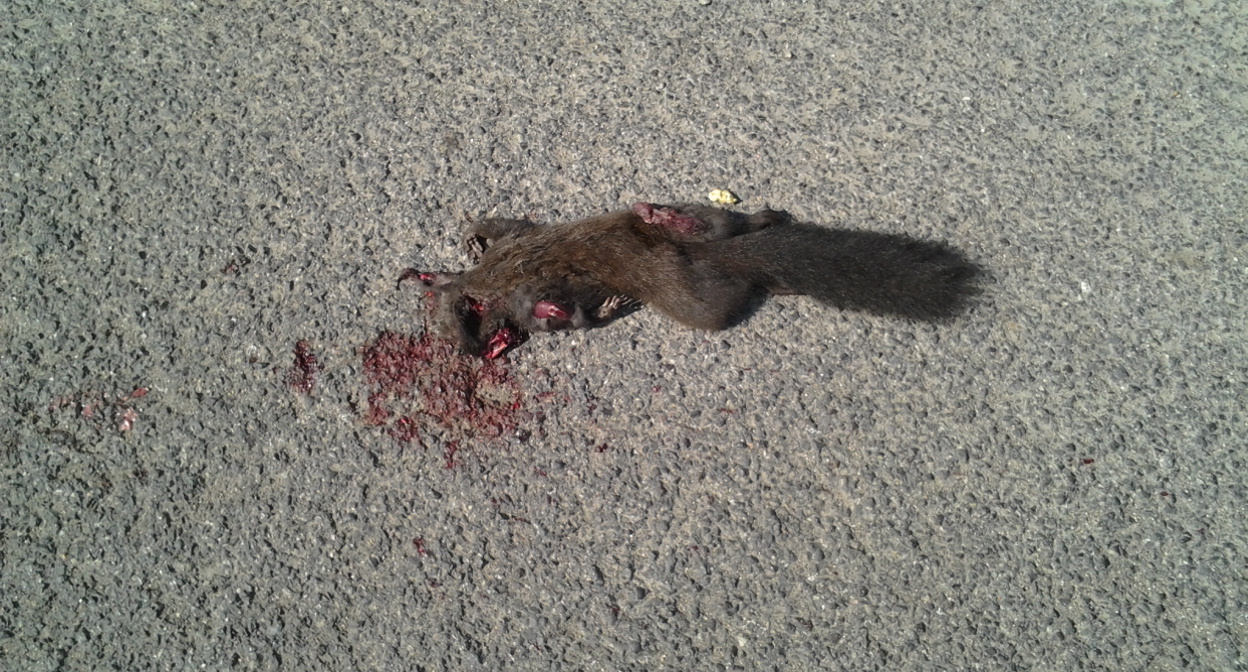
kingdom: Animalia
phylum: Chordata
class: Mammalia
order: Rodentia
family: Sciuridae
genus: Sciurus
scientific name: Sciurus vulgaris
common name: Eurasian red squirrel
